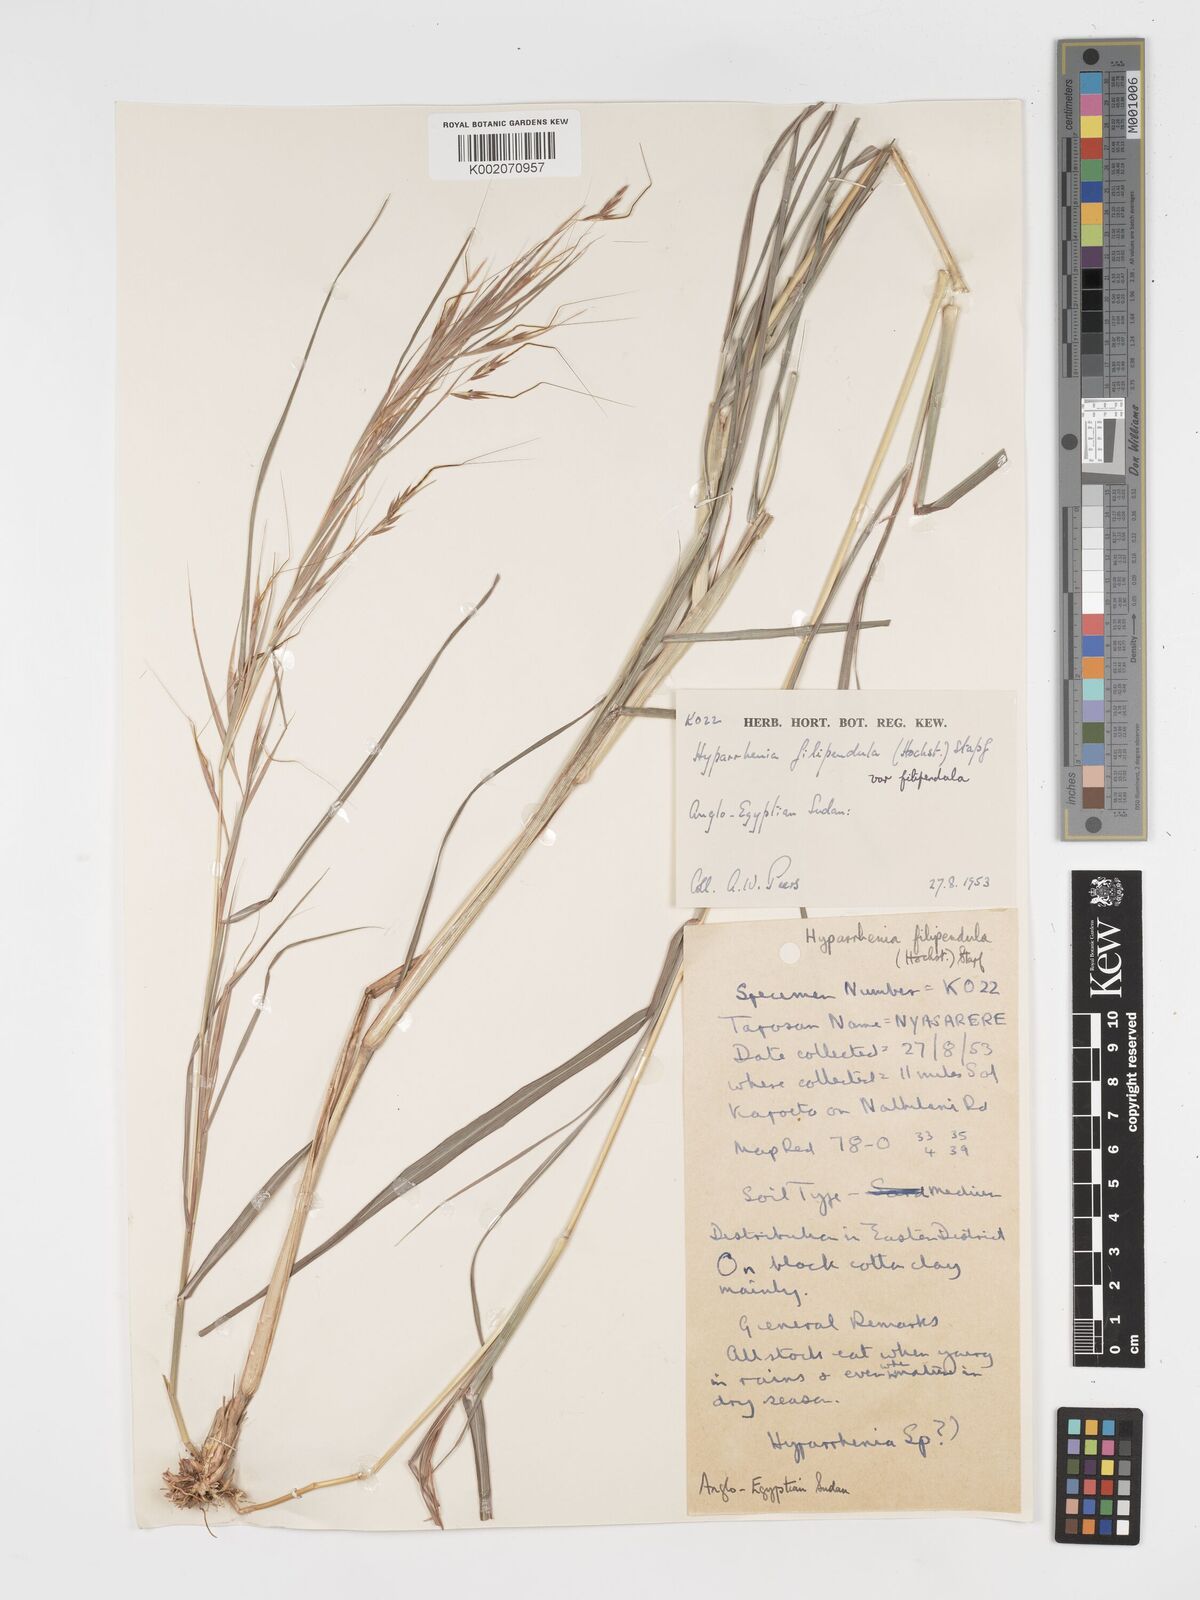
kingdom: Plantae
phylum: Tracheophyta
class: Liliopsida
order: Poales
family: Poaceae
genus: Hyparrhenia
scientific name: Hyparrhenia filipendula
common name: Tambookie grass
